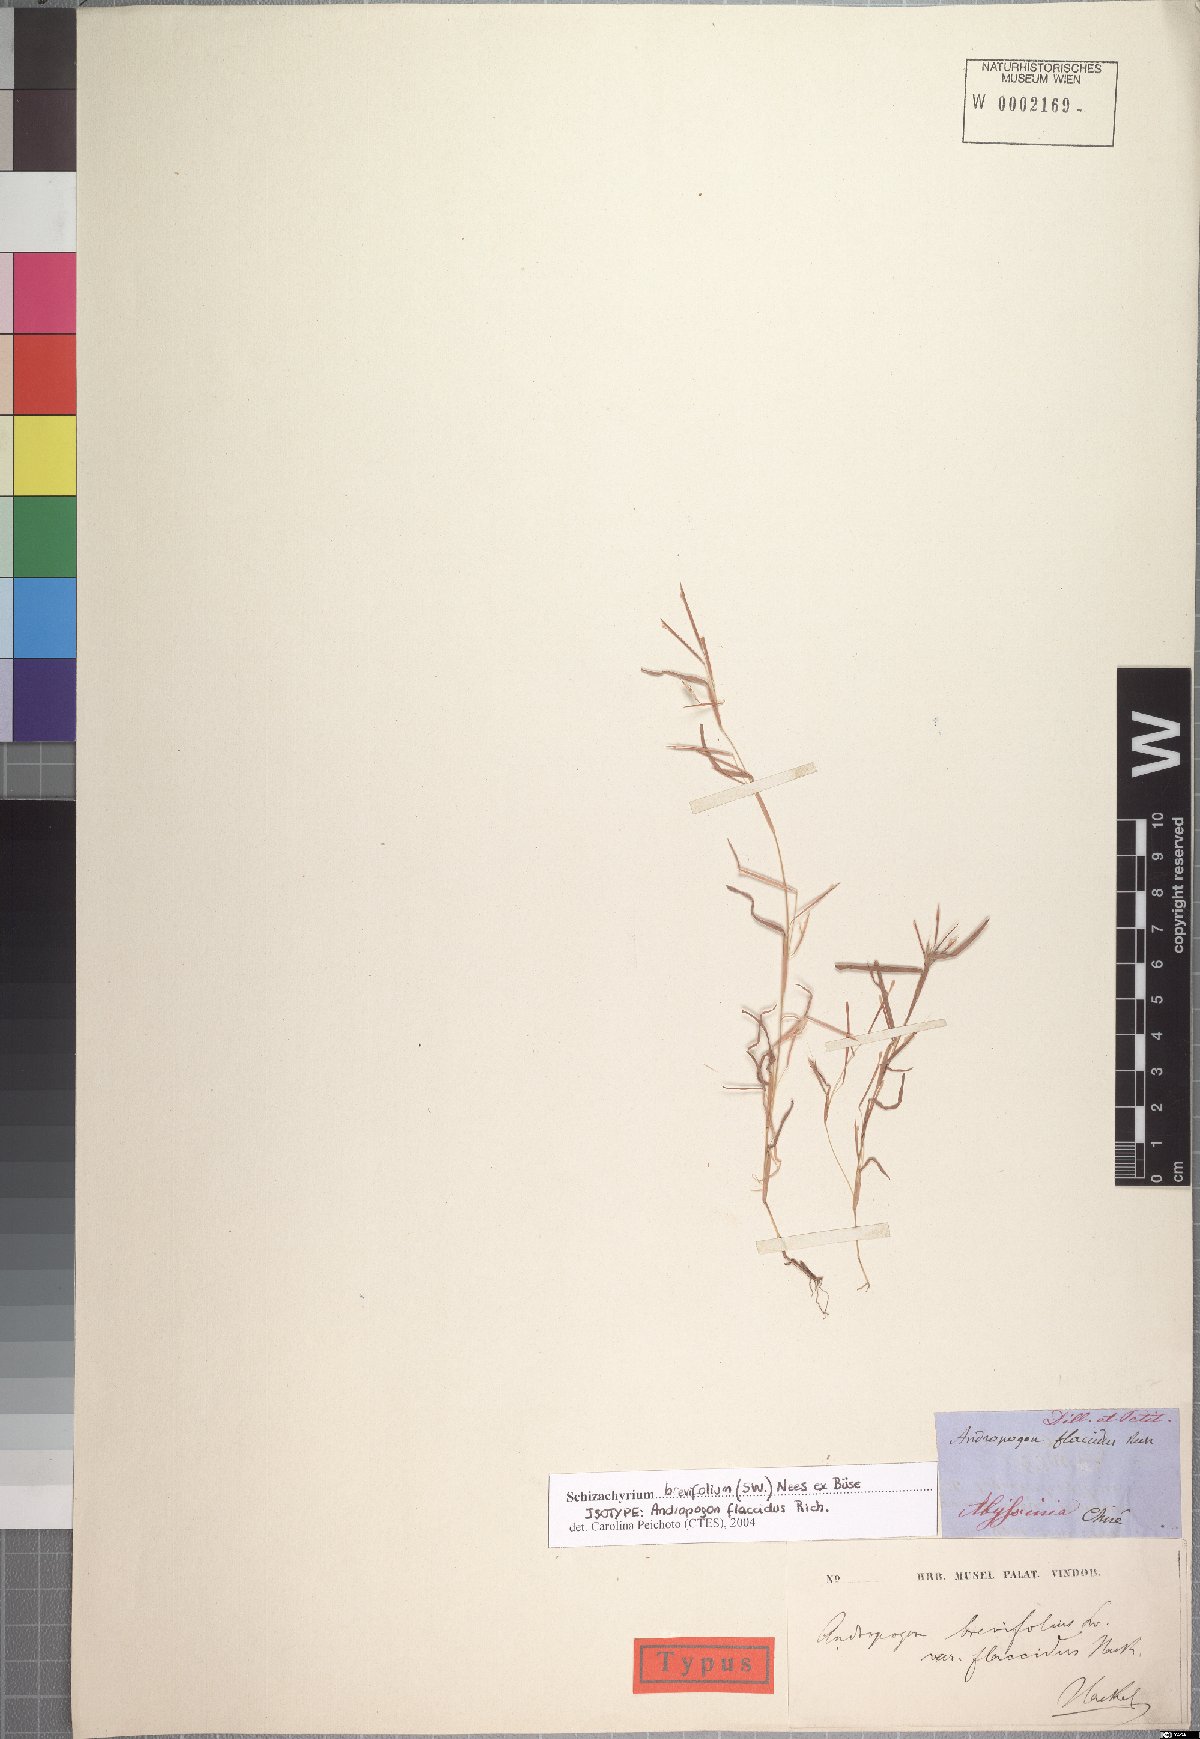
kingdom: Plantae
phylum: Tracheophyta
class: Liliopsida
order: Poales
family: Poaceae
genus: Schizachyrium
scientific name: Schizachyrium brevifolium
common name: Serillo dulce
